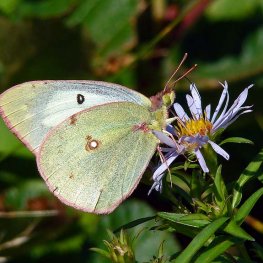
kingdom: Animalia
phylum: Arthropoda
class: Insecta
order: Lepidoptera
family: Pieridae
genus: Colias
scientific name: Colias philodice
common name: Clouded Sulphur
